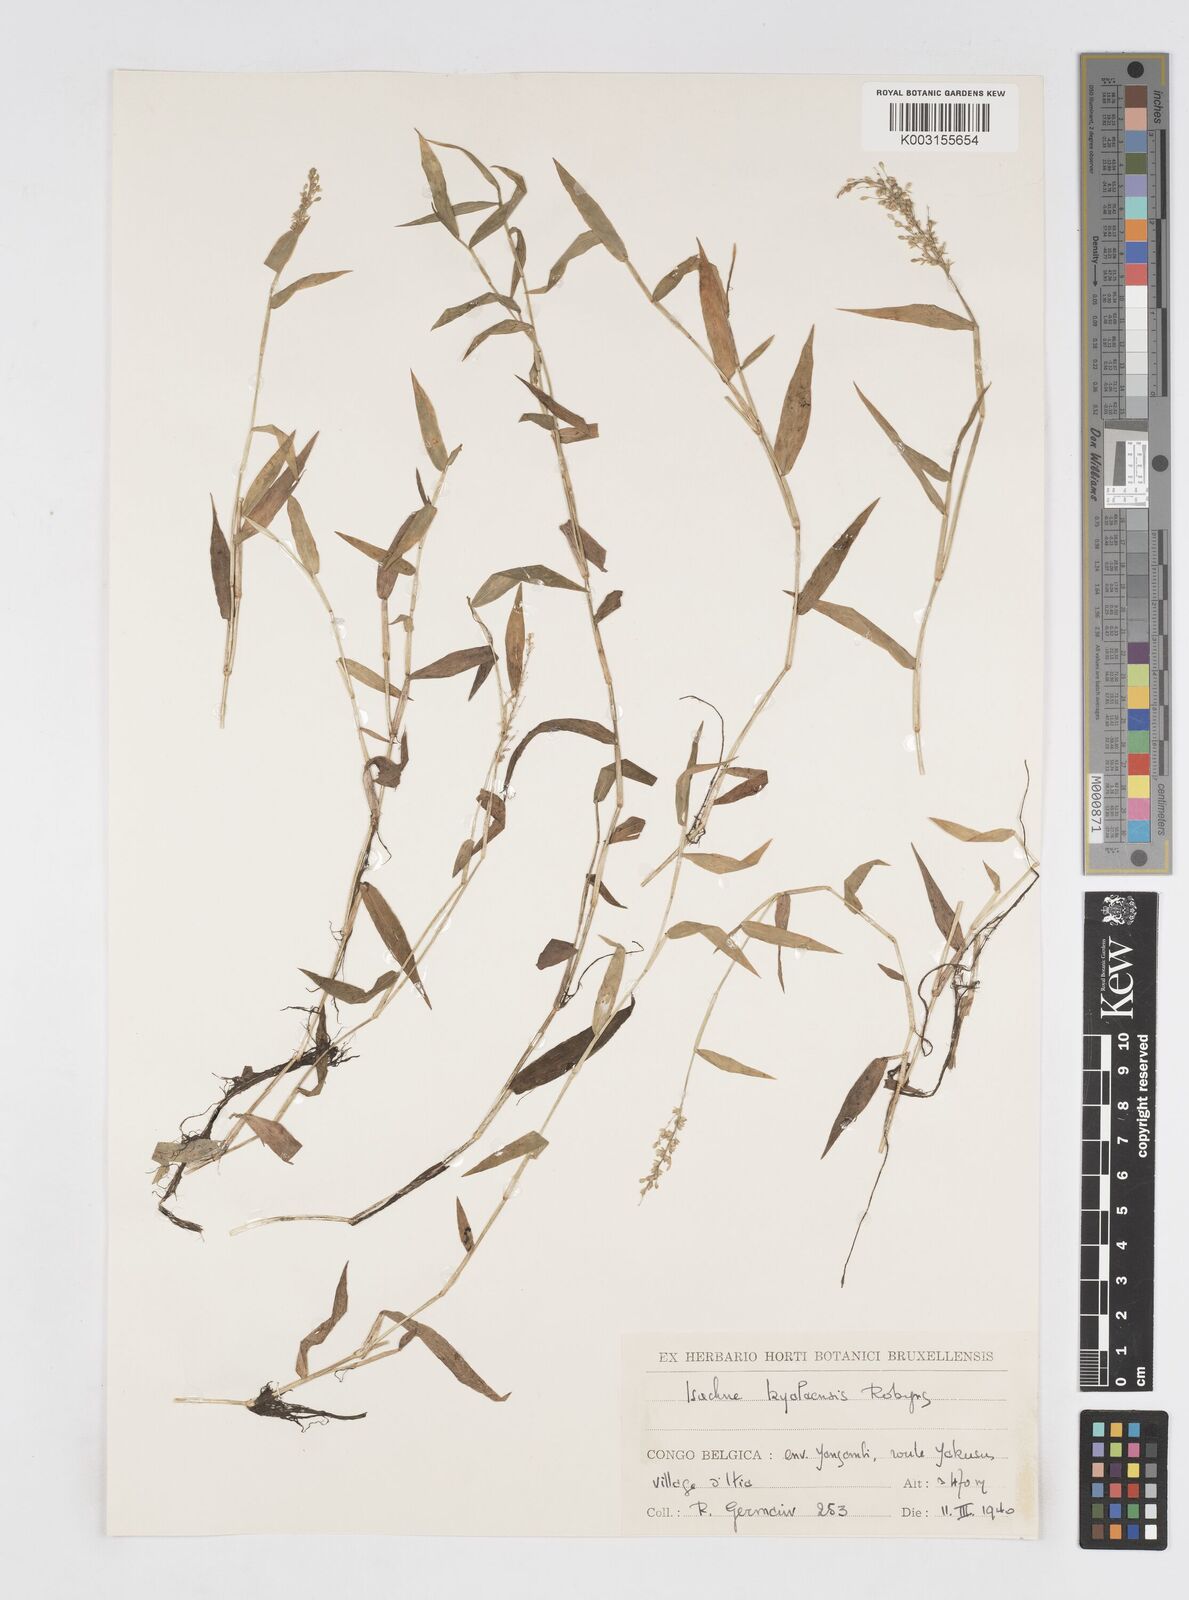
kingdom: Plantae
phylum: Tracheophyta
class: Liliopsida
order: Poales
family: Poaceae
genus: Isachne
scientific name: Isachne kiyalaensis
